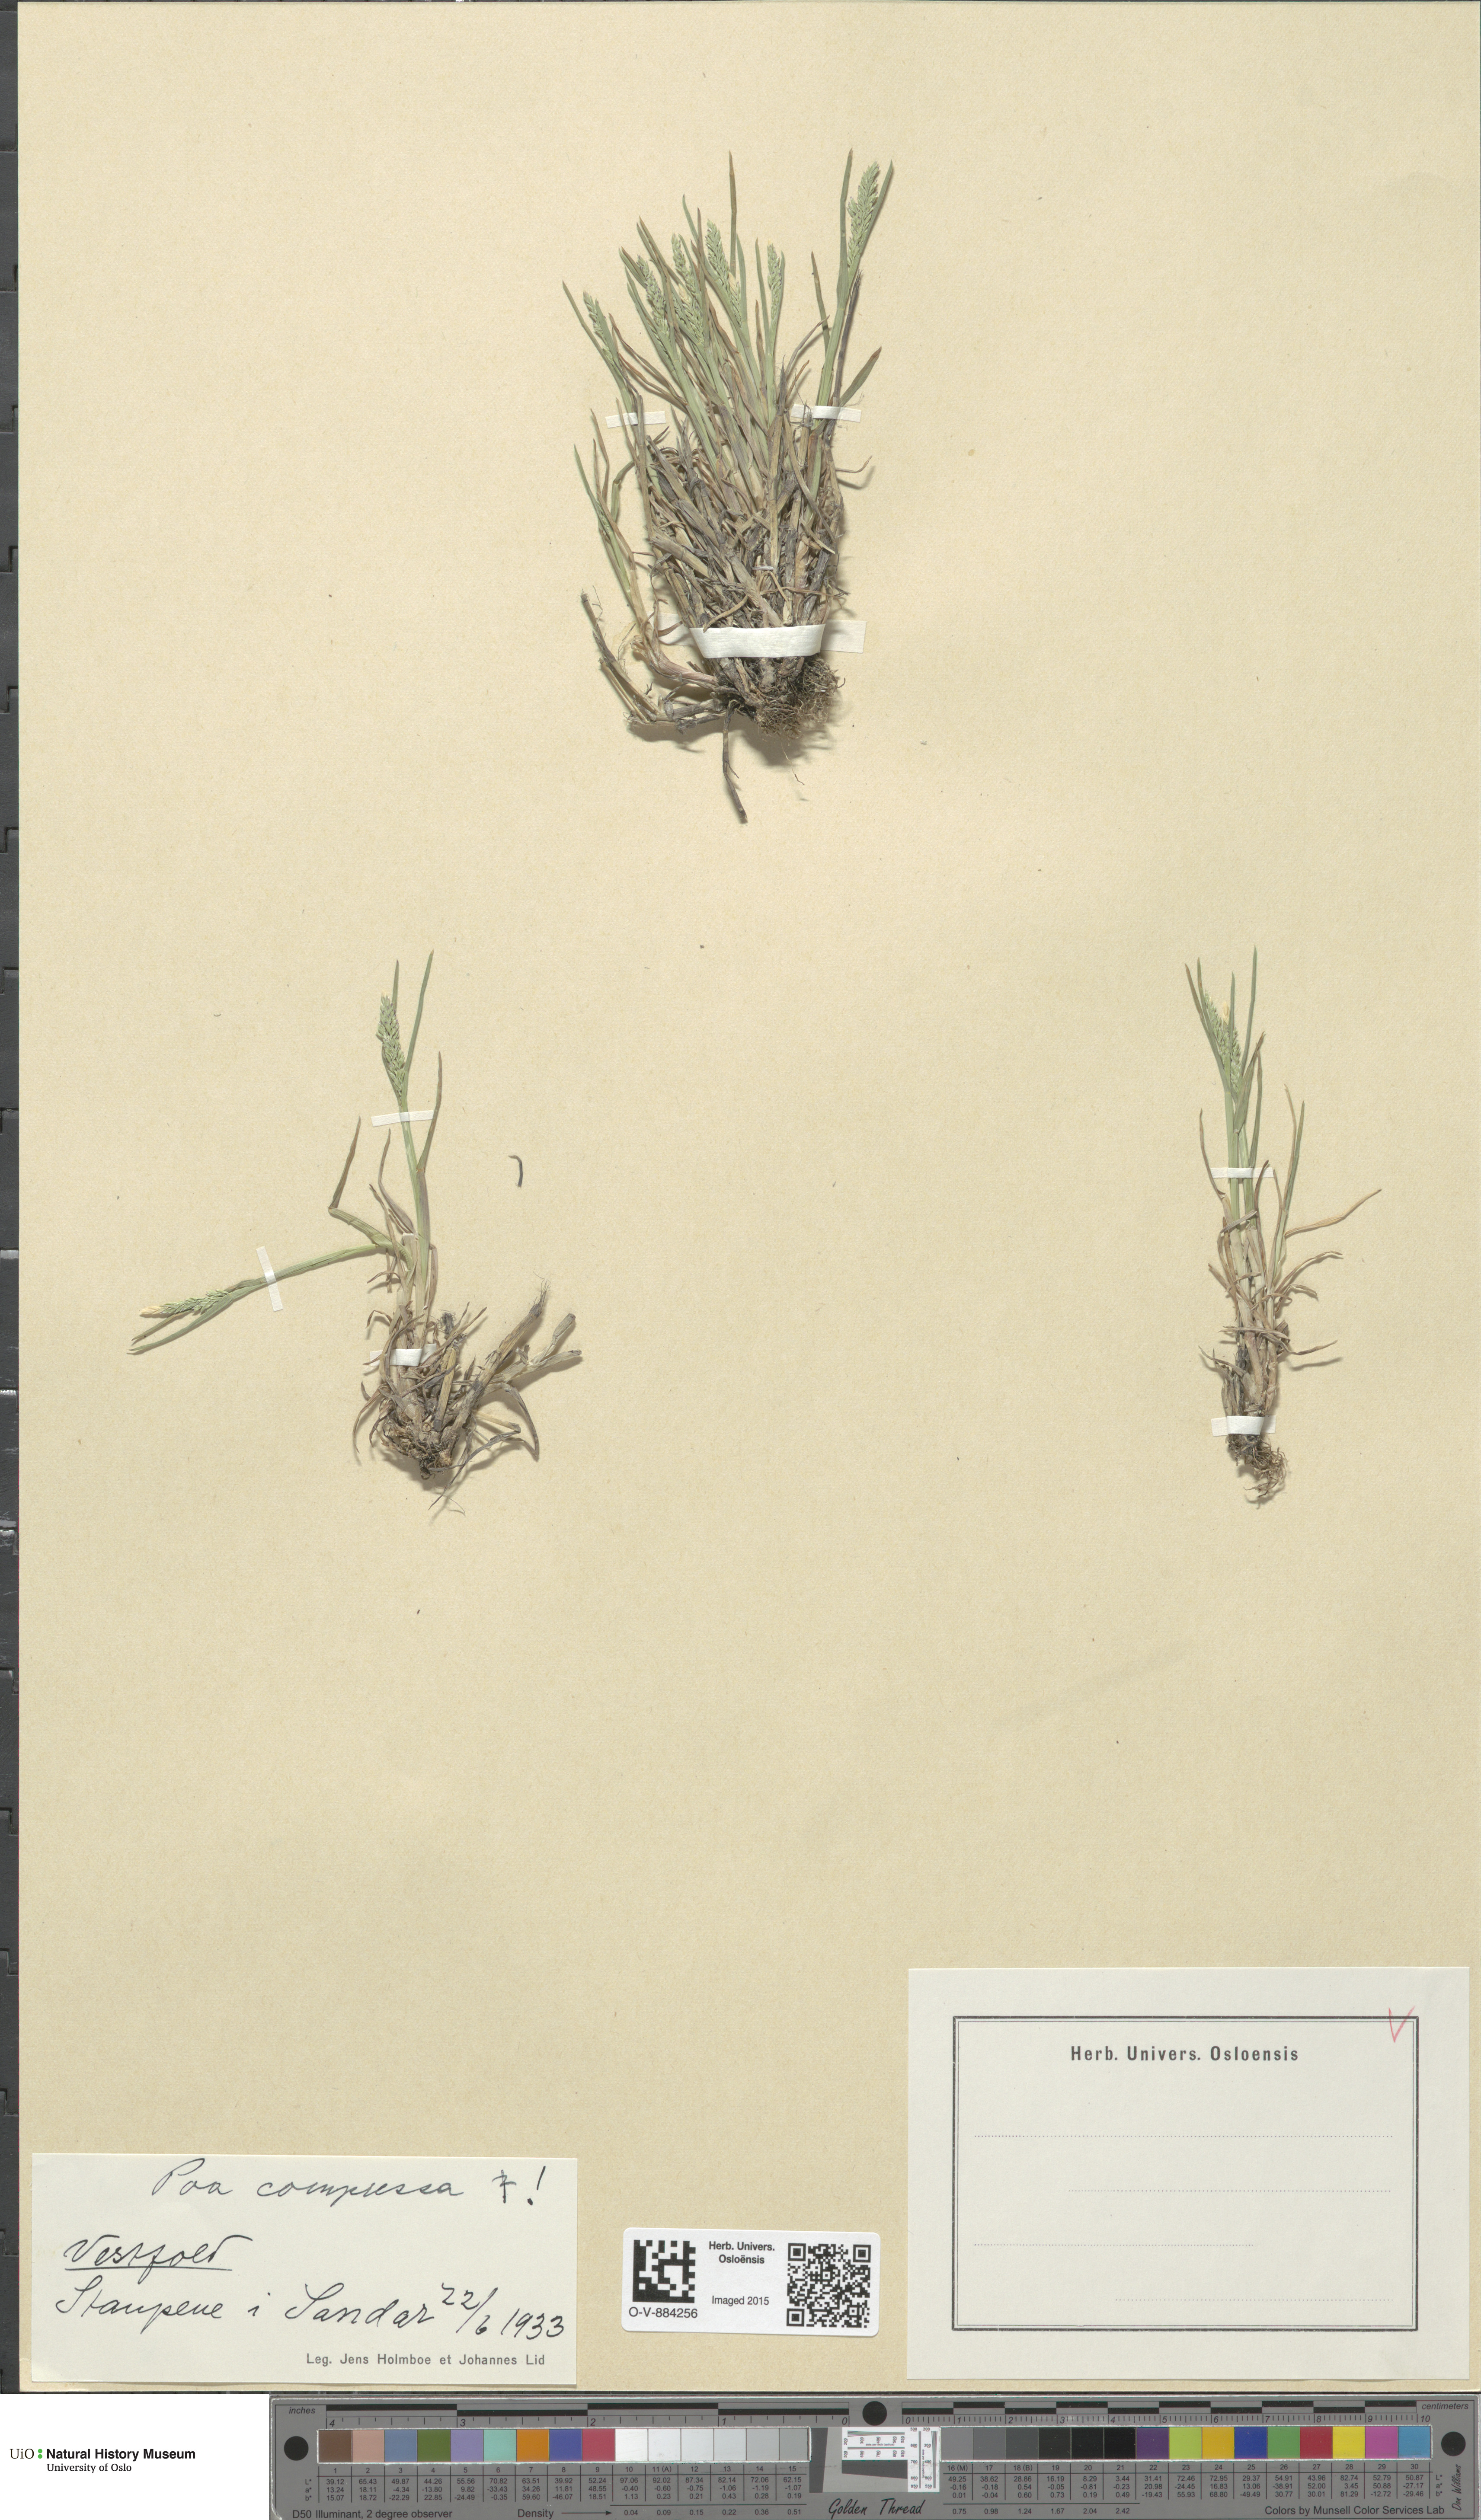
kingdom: Plantae
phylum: Tracheophyta
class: Liliopsida
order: Poales
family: Poaceae
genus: Poa
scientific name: Poa compressa
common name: Canada bluegrass
